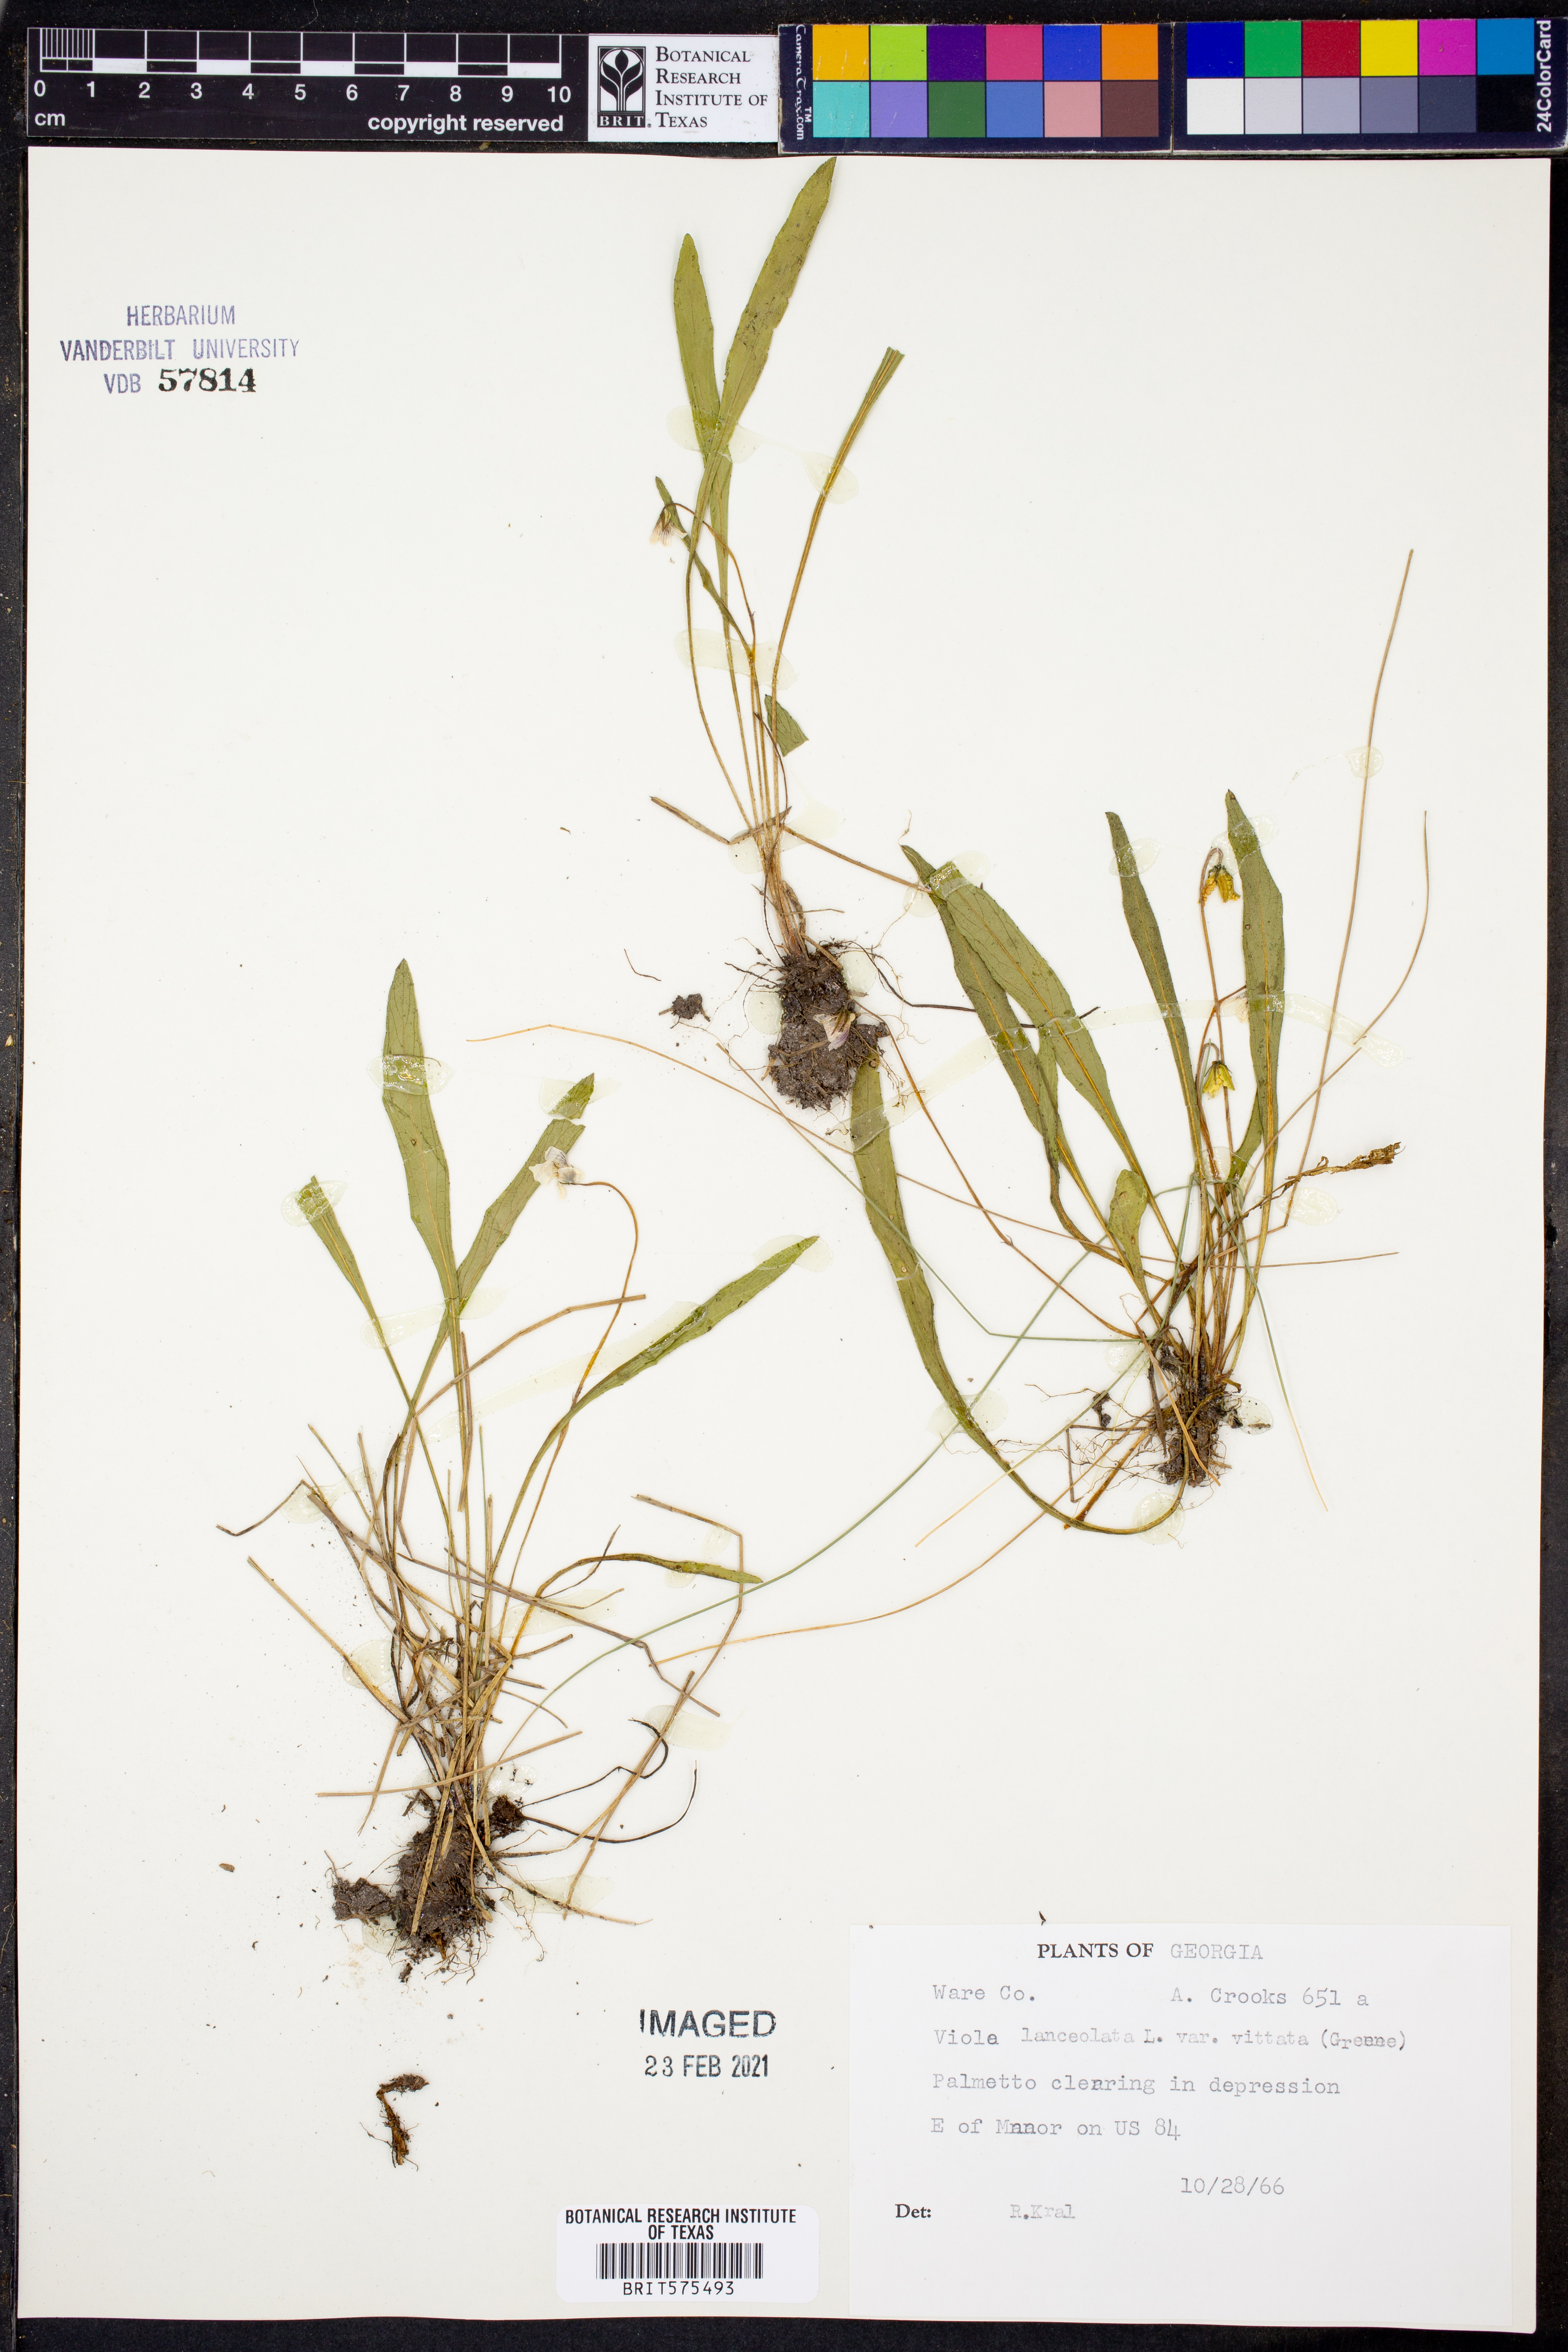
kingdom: Plantae
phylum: Tracheophyta
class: Magnoliopsida
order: Malpighiales
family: Violaceae
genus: Viola
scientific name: Viola vittata
